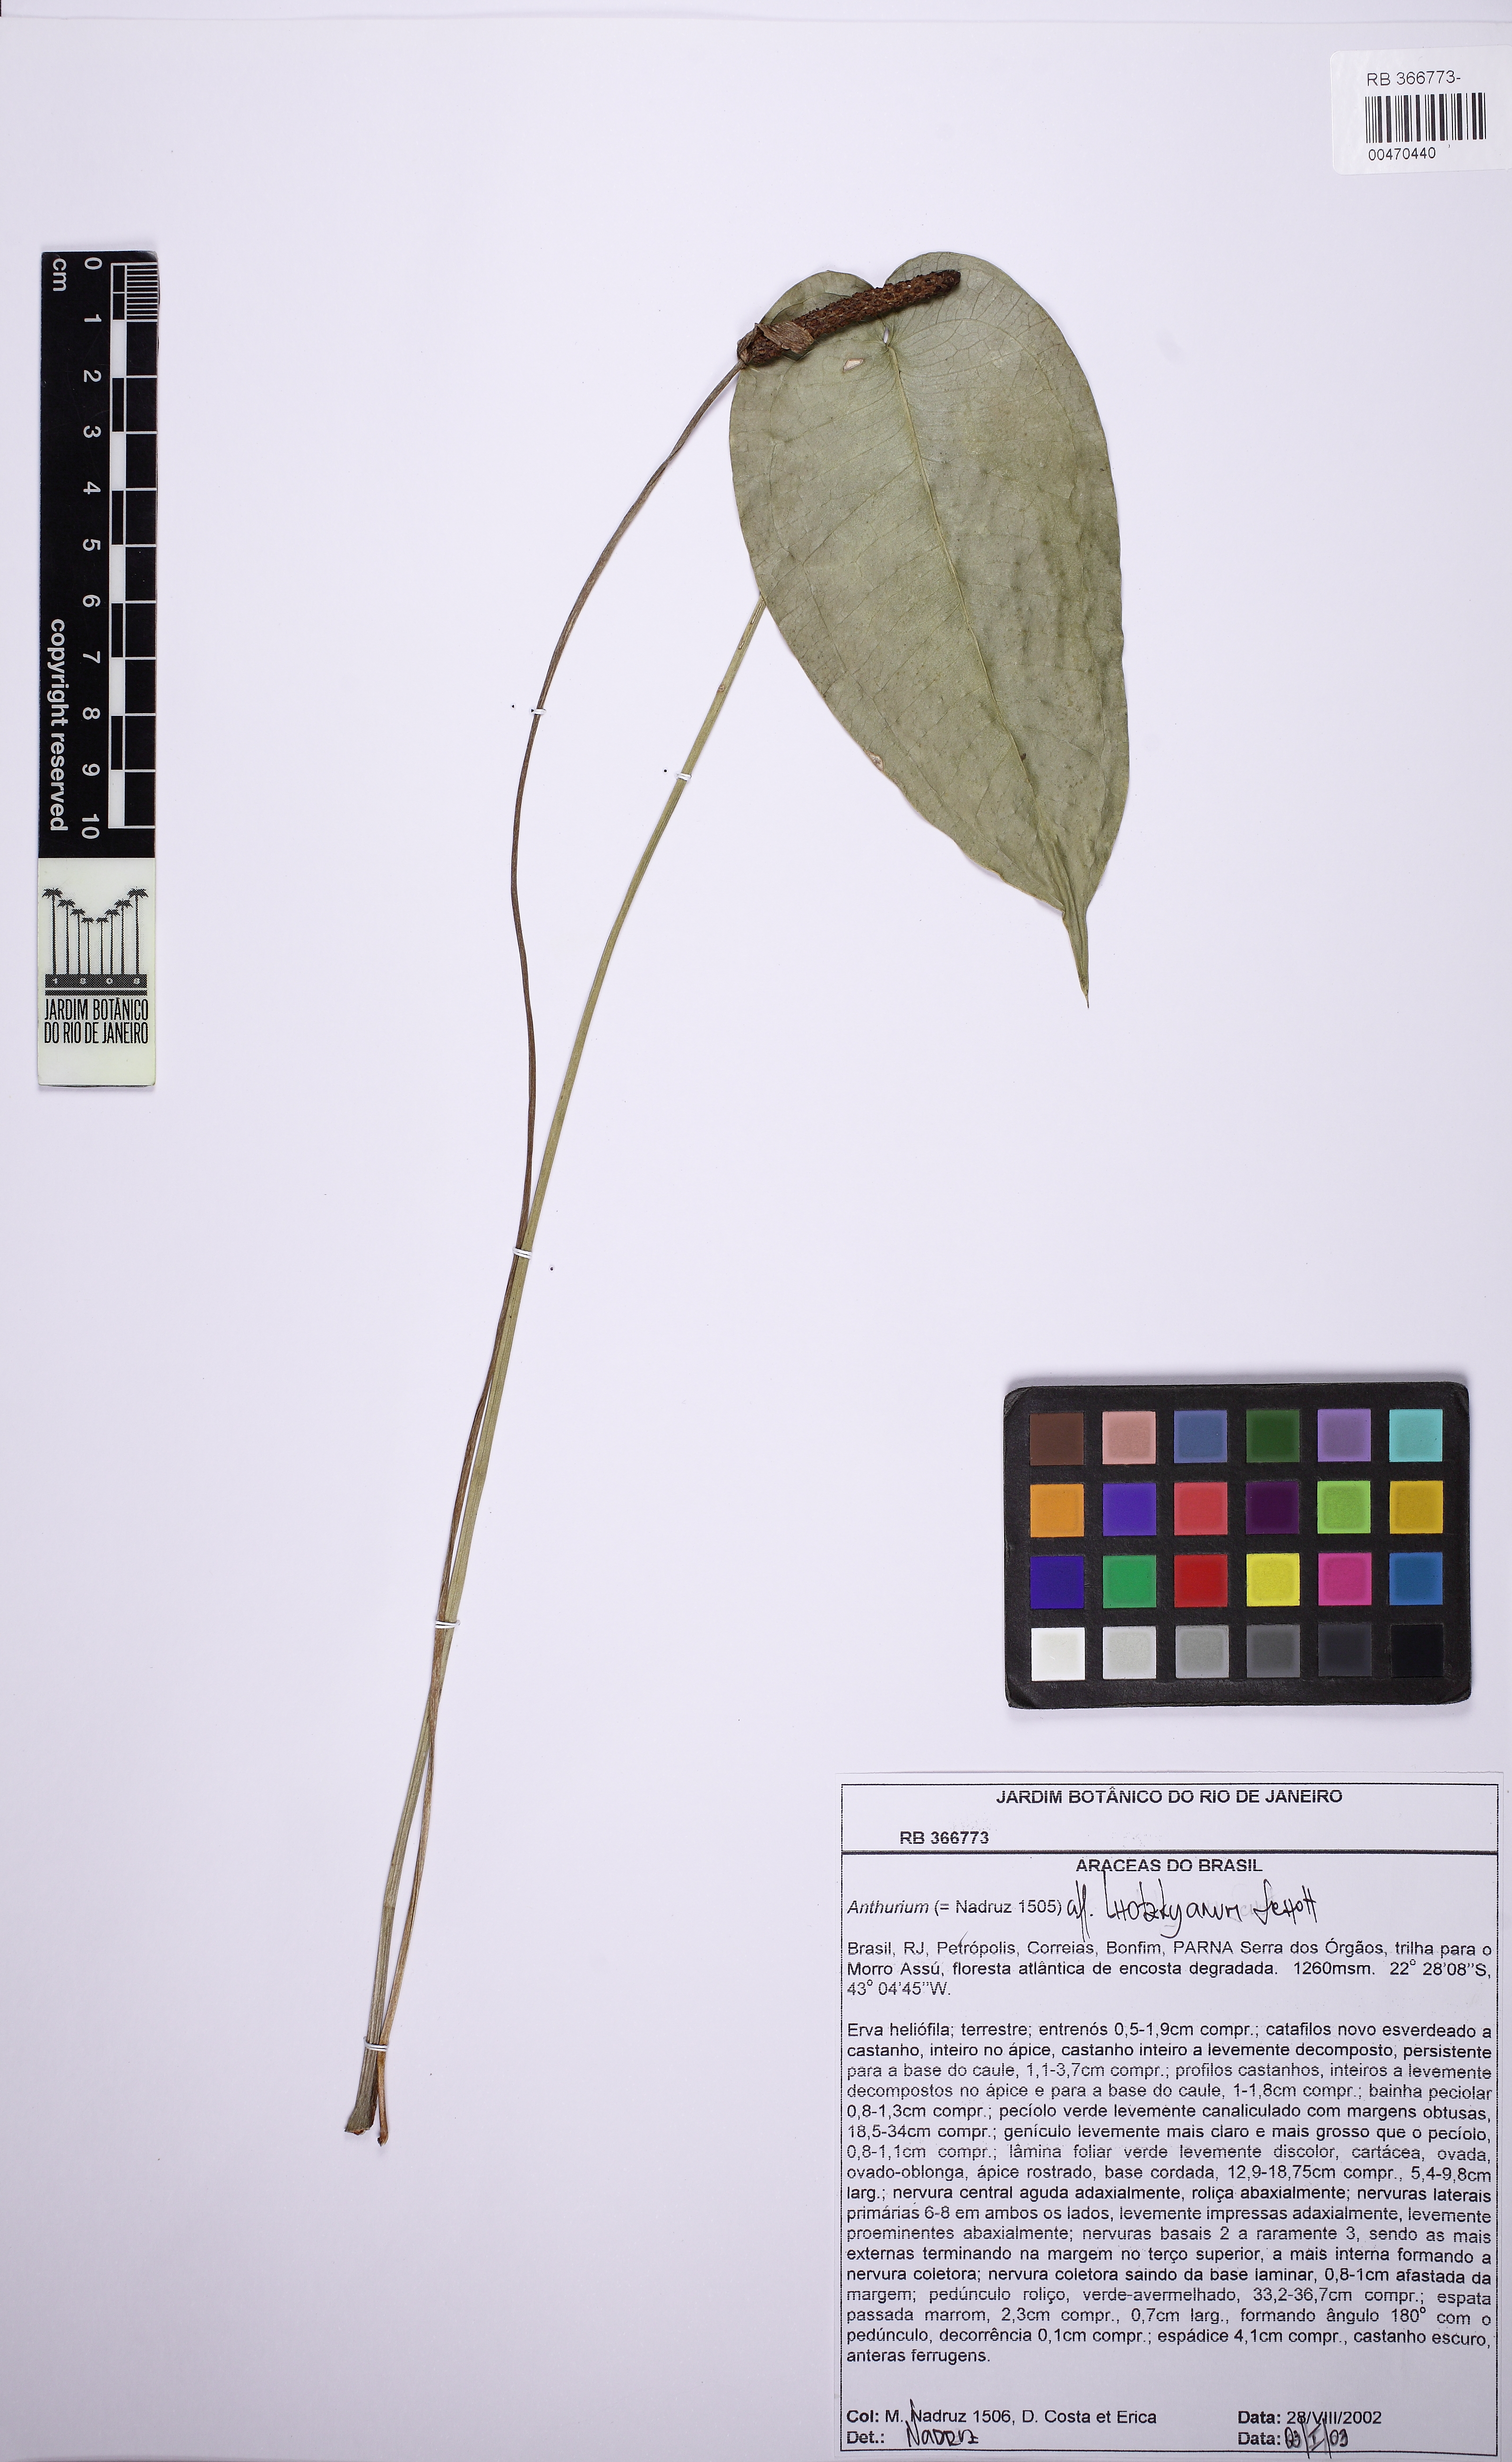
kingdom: Plantae
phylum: Tracheophyta
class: Liliopsida
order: Alismatales
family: Araceae
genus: Anthurium
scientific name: Anthurium augustinum
